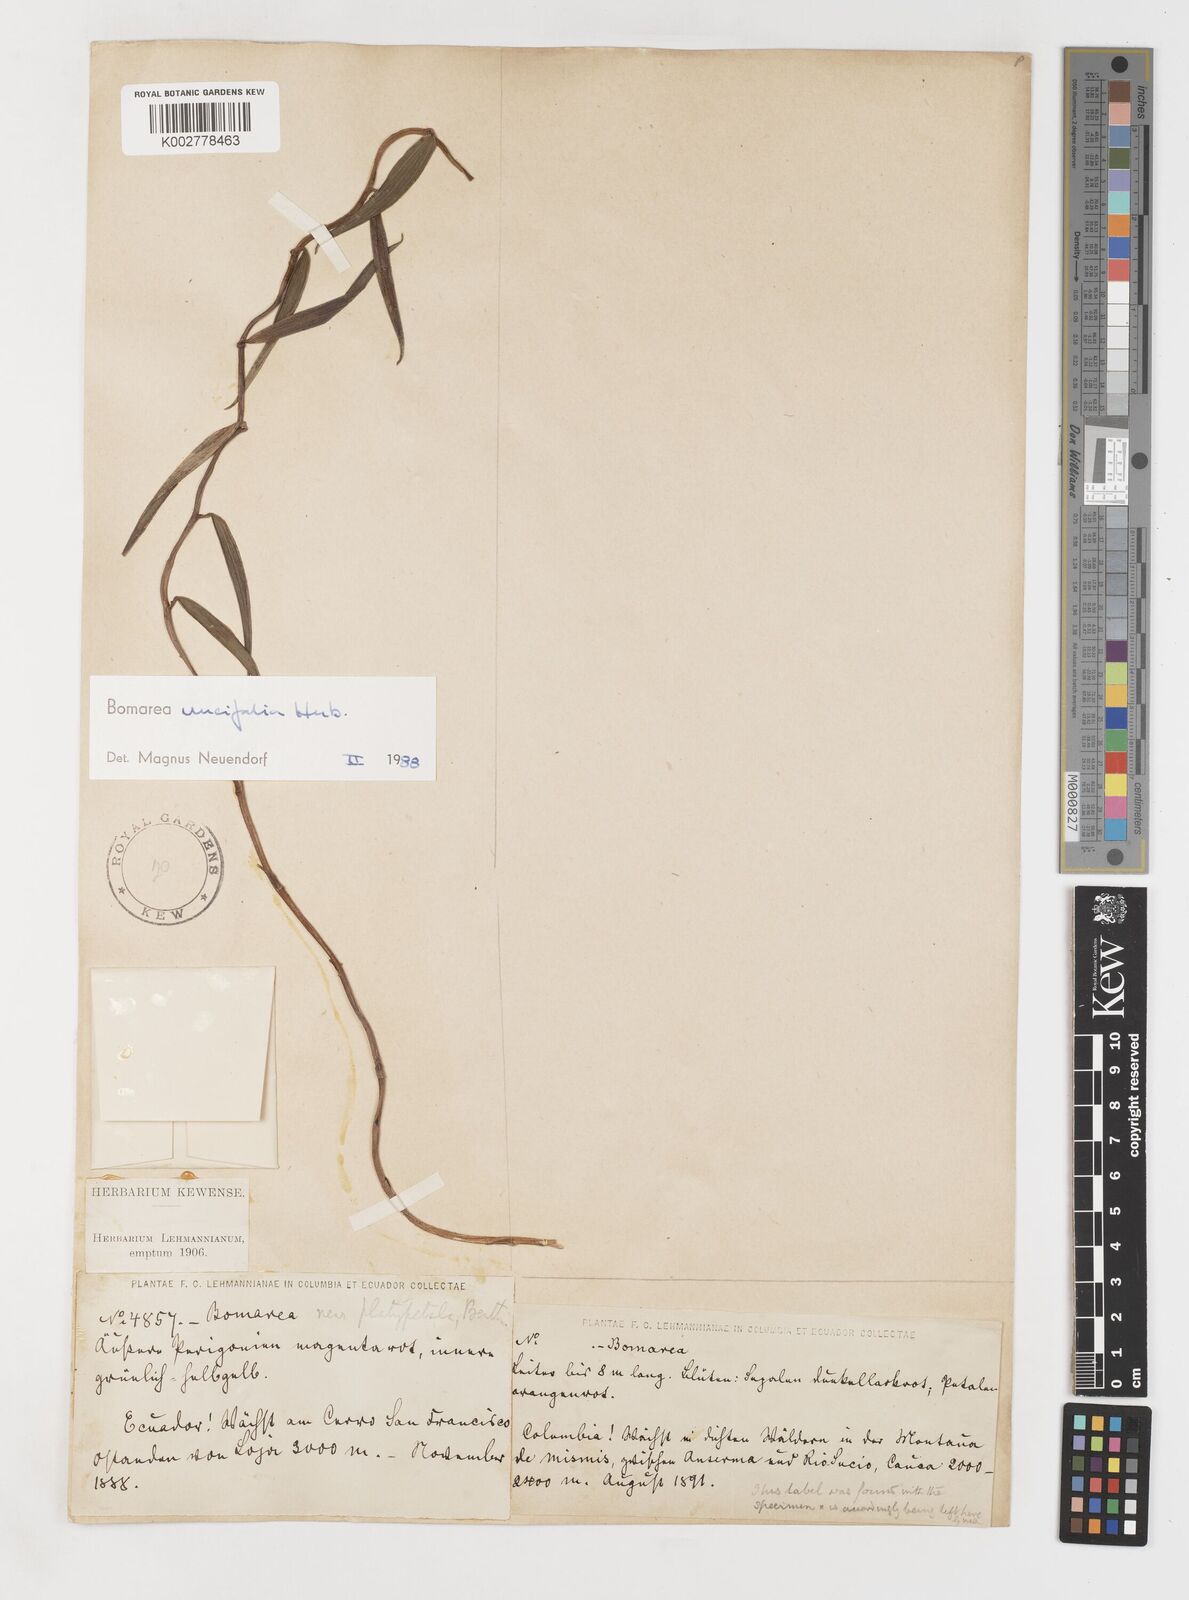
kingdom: Plantae
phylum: Tracheophyta
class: Liliopsida
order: Liliales
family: Alstroemeriaceae
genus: Bomarea
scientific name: Bomarea uncifolia
